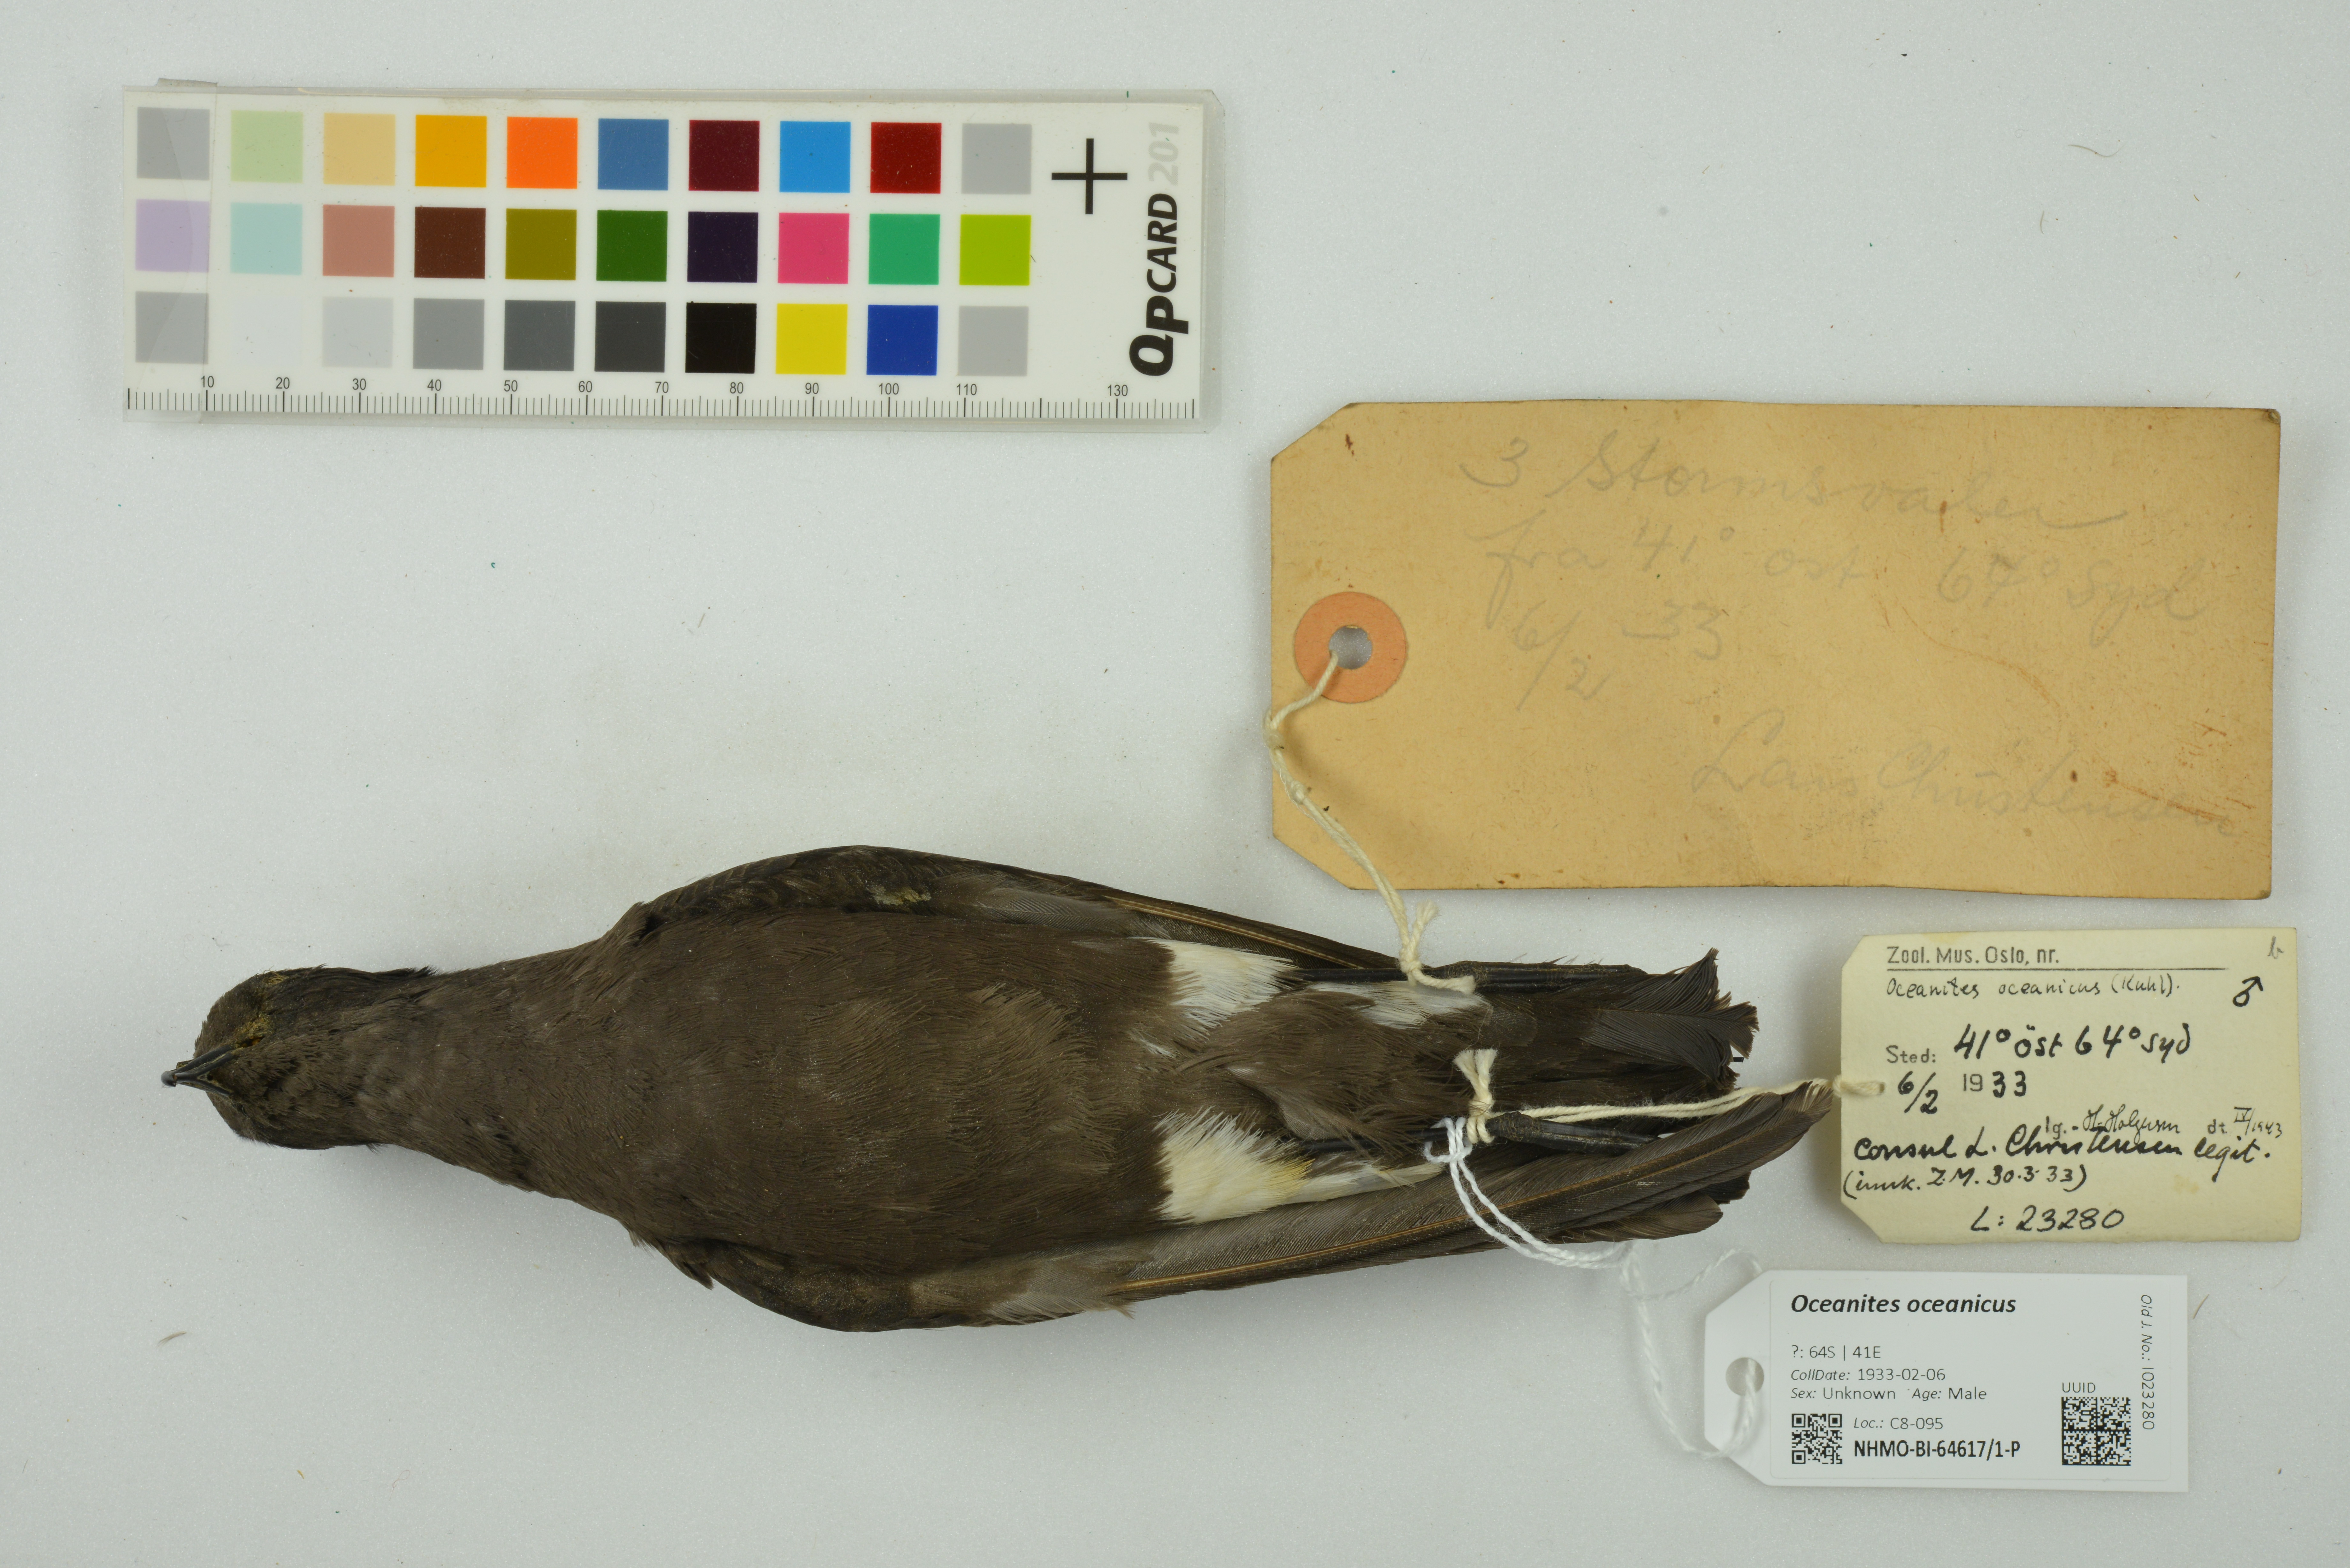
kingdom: Animalia
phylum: Chordata
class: Aves
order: Procellariiformes
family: Hydrobatidae
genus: Oceanites
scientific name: Oceanites oceanicus
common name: Wilson's storm petrel
